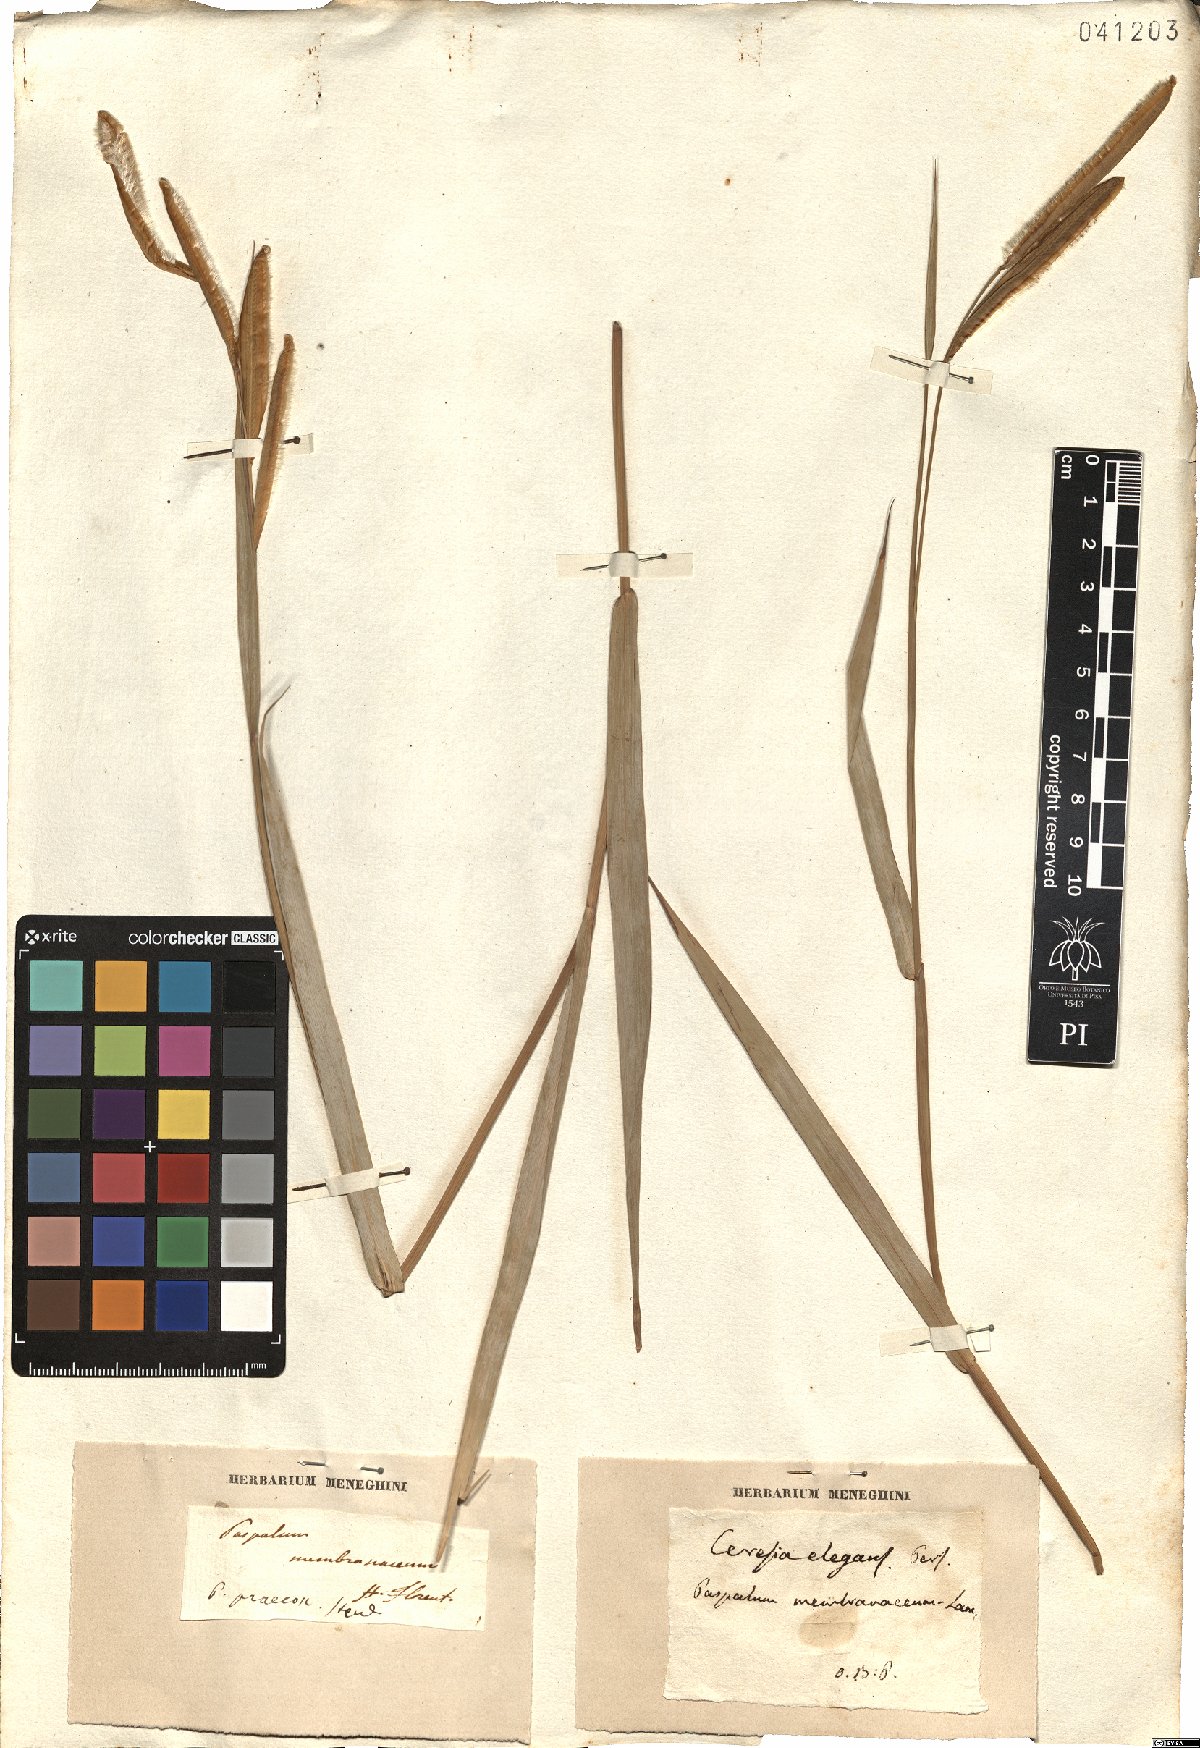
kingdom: Plantae
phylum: Tracheophyta
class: Liliopsida
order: Poales
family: Poaceae
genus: Paspalum
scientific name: Paspalum ceresia
